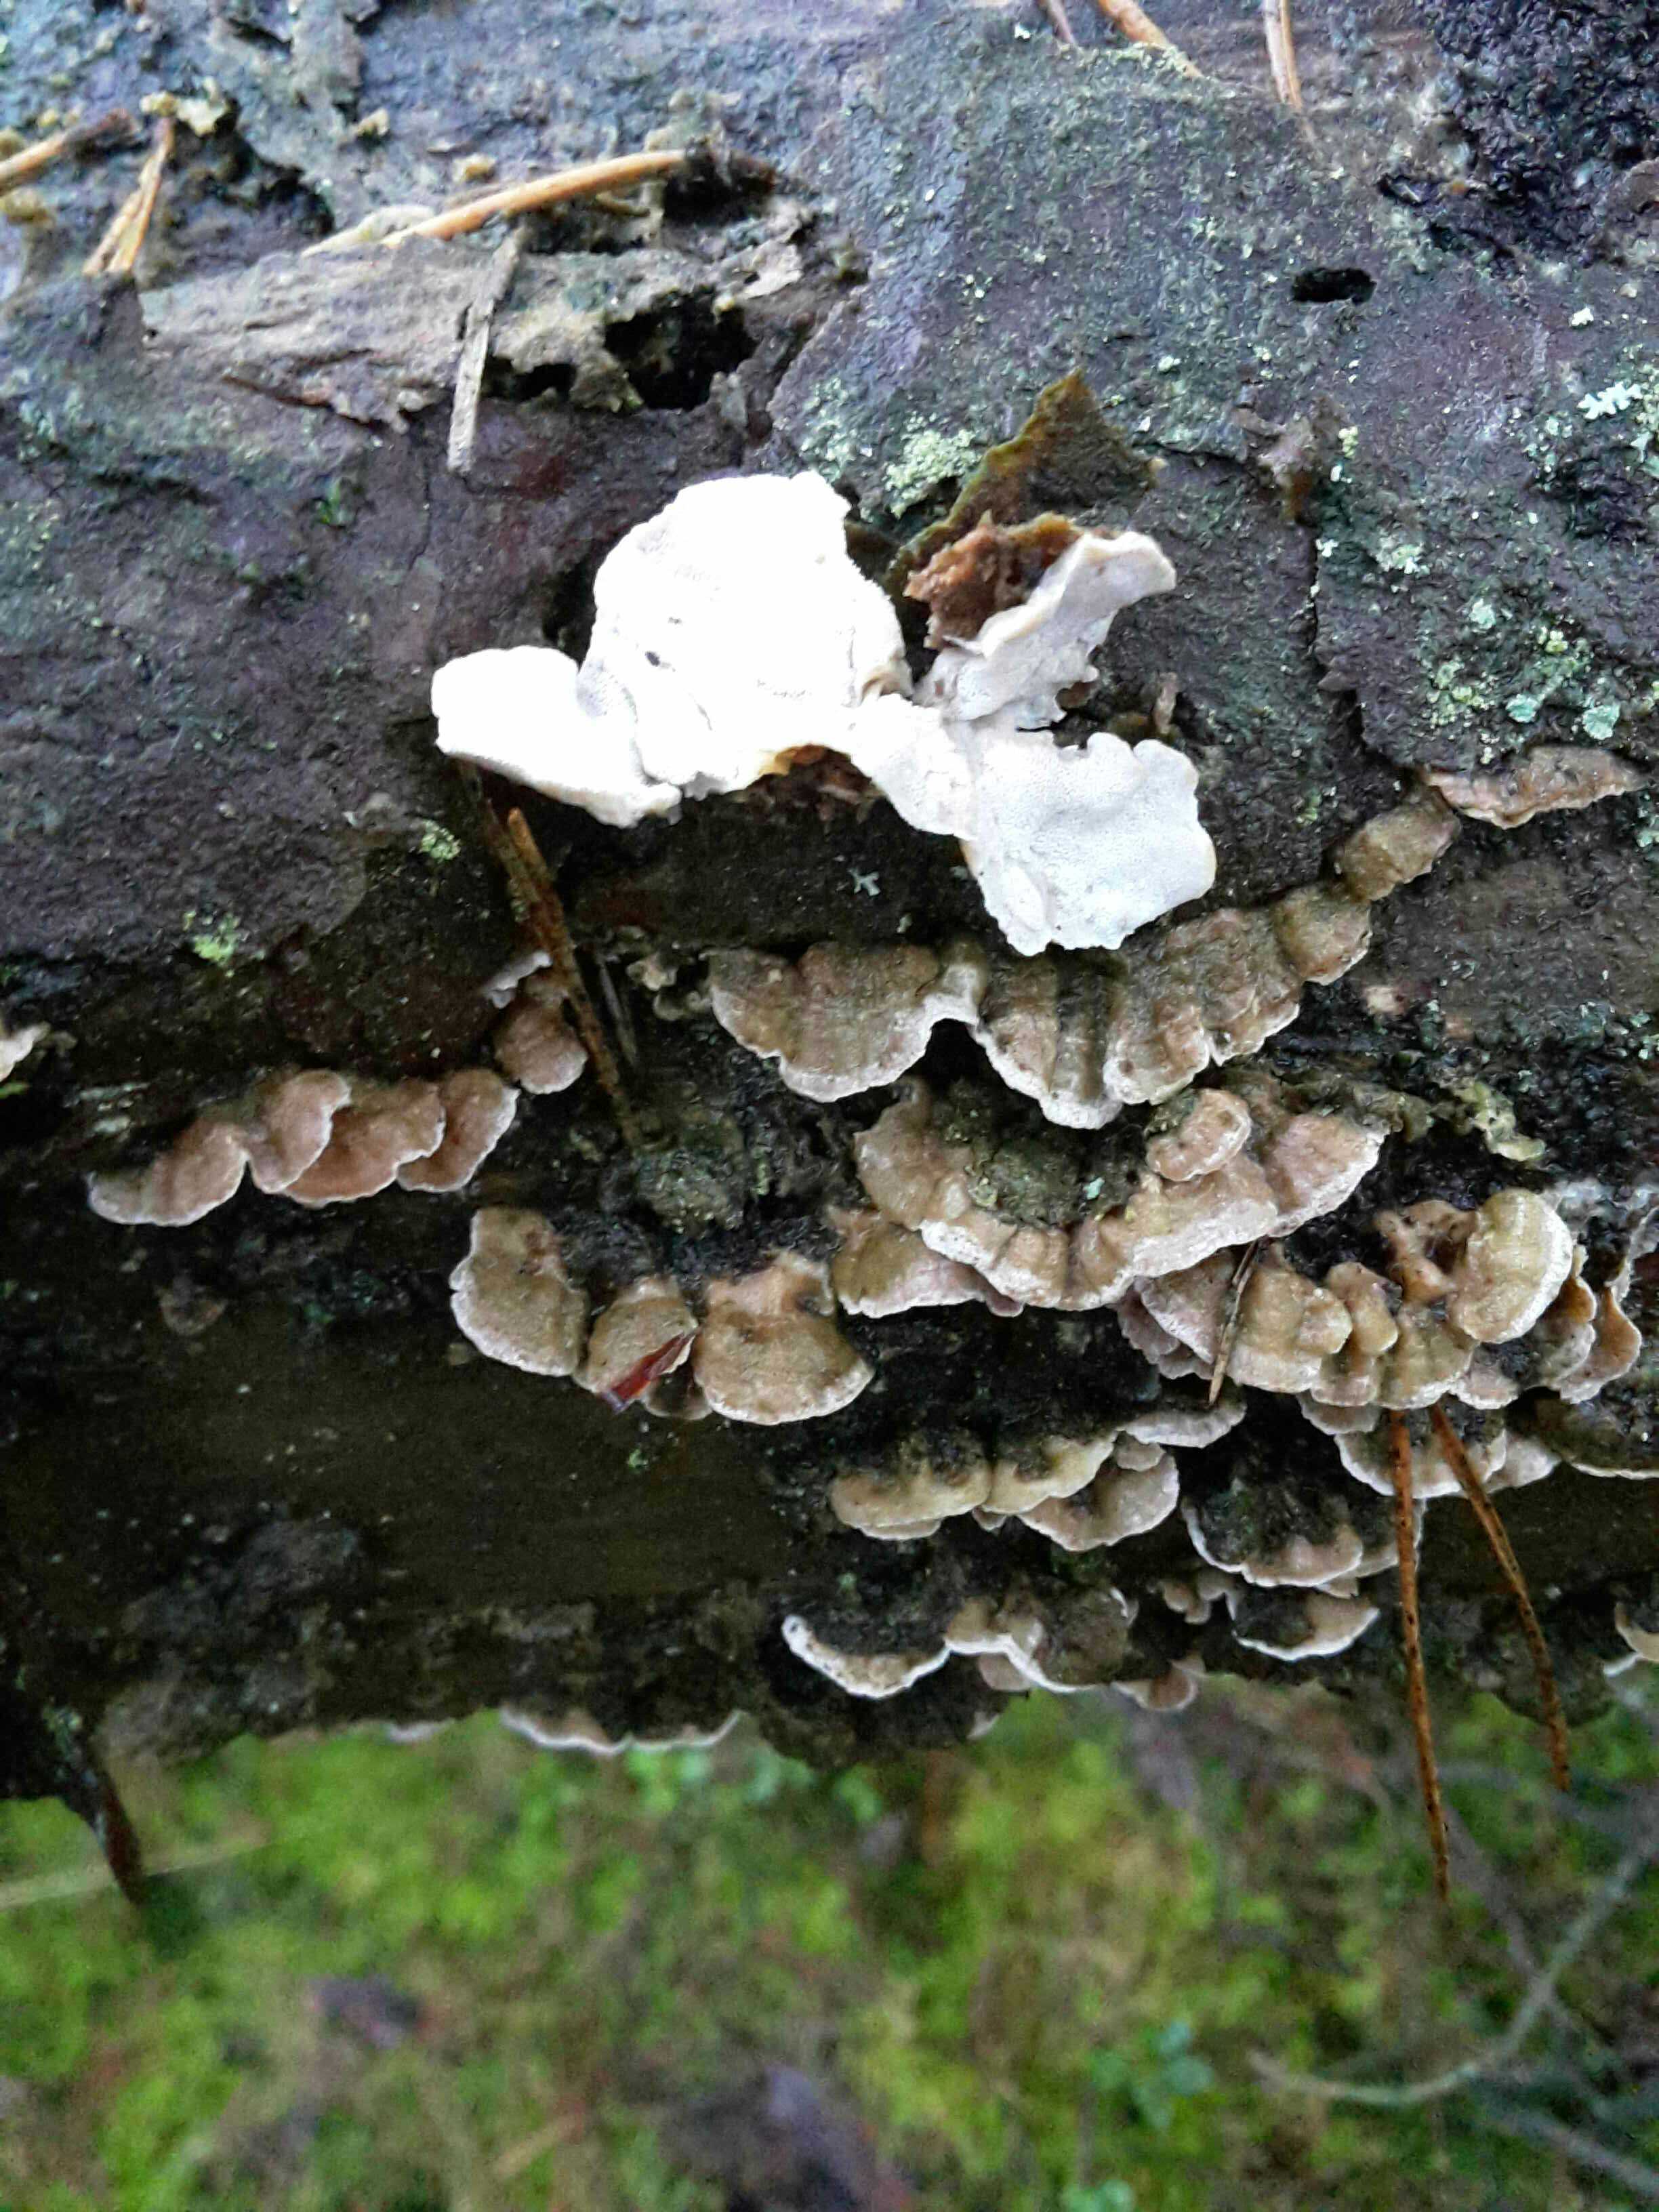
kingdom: Fungi
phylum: Basidiomycota
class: Agaricomycetes
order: Polyporales
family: Incrustoporiaceae
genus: Skeletocutis
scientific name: Skeletocutis carneogrisea
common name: rødgrå krystalporesvamp
